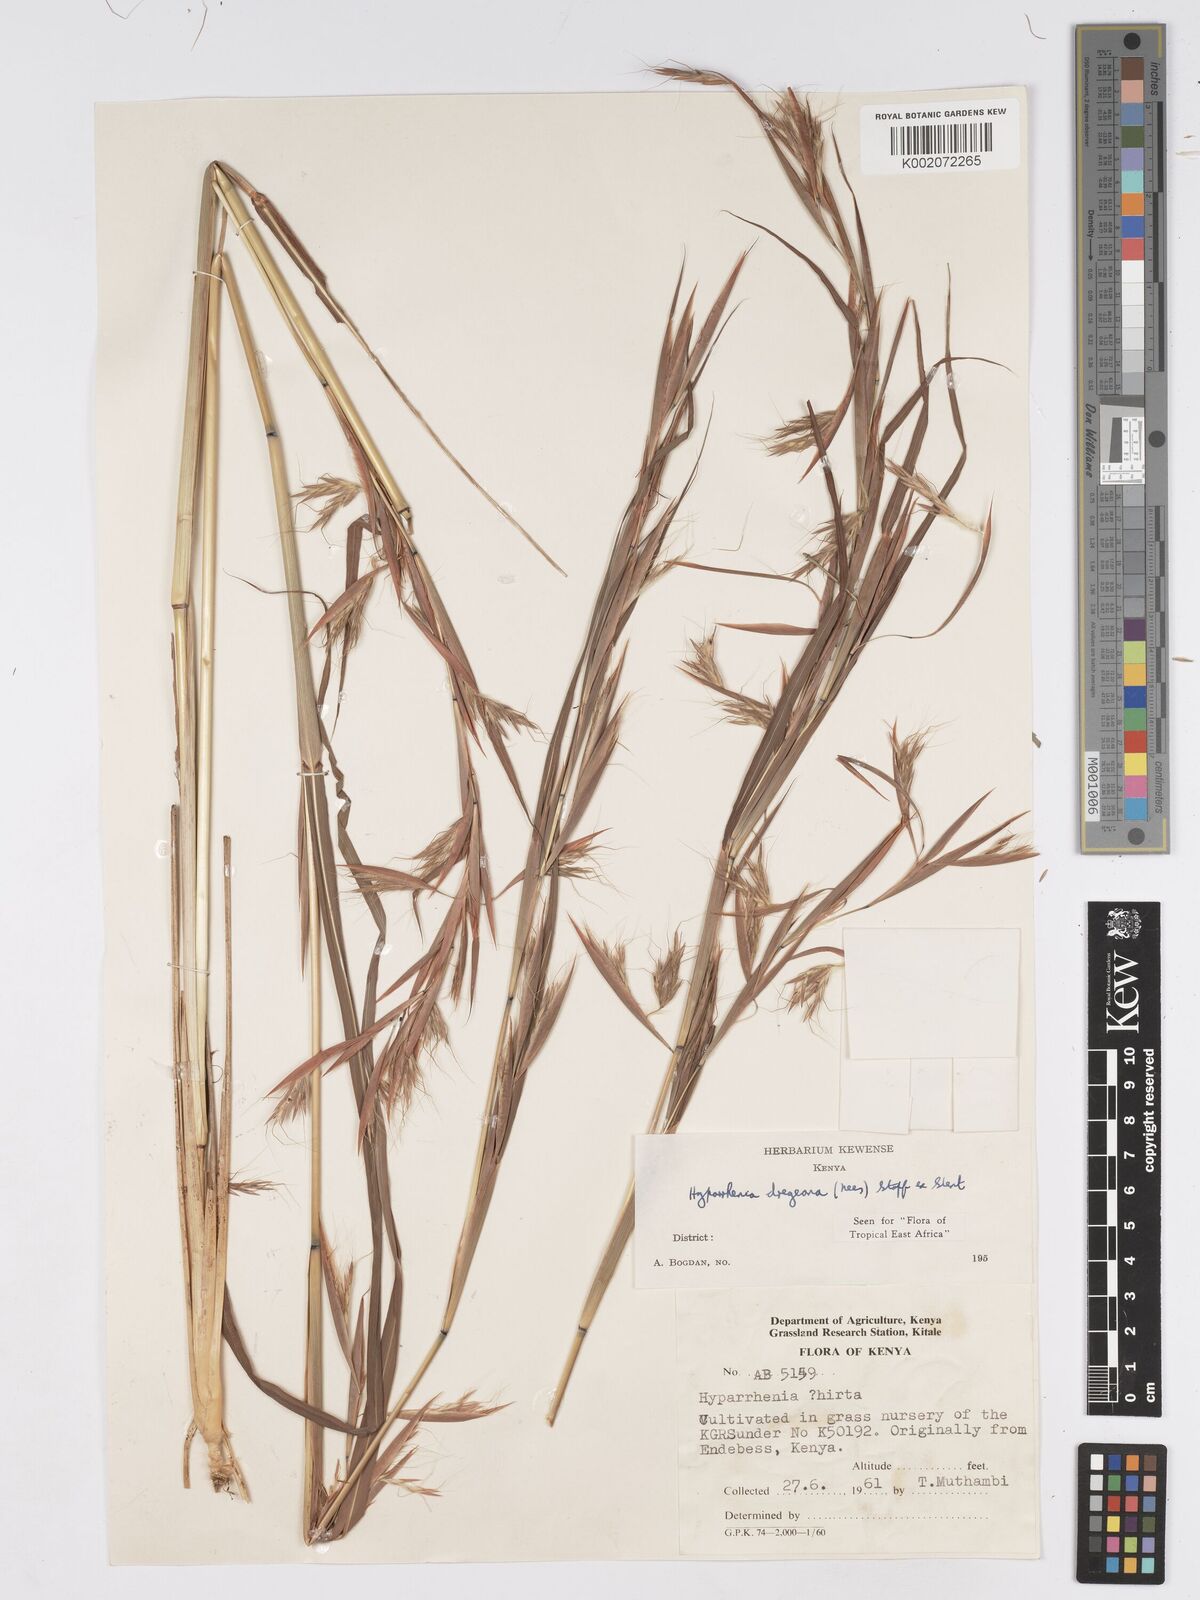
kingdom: Plantae
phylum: Tracheophyta
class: Liliopsida
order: Poales
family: Poaceae
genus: Hyparrhenia
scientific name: Hyparrhenia dregeana
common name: Silky thatching grass
